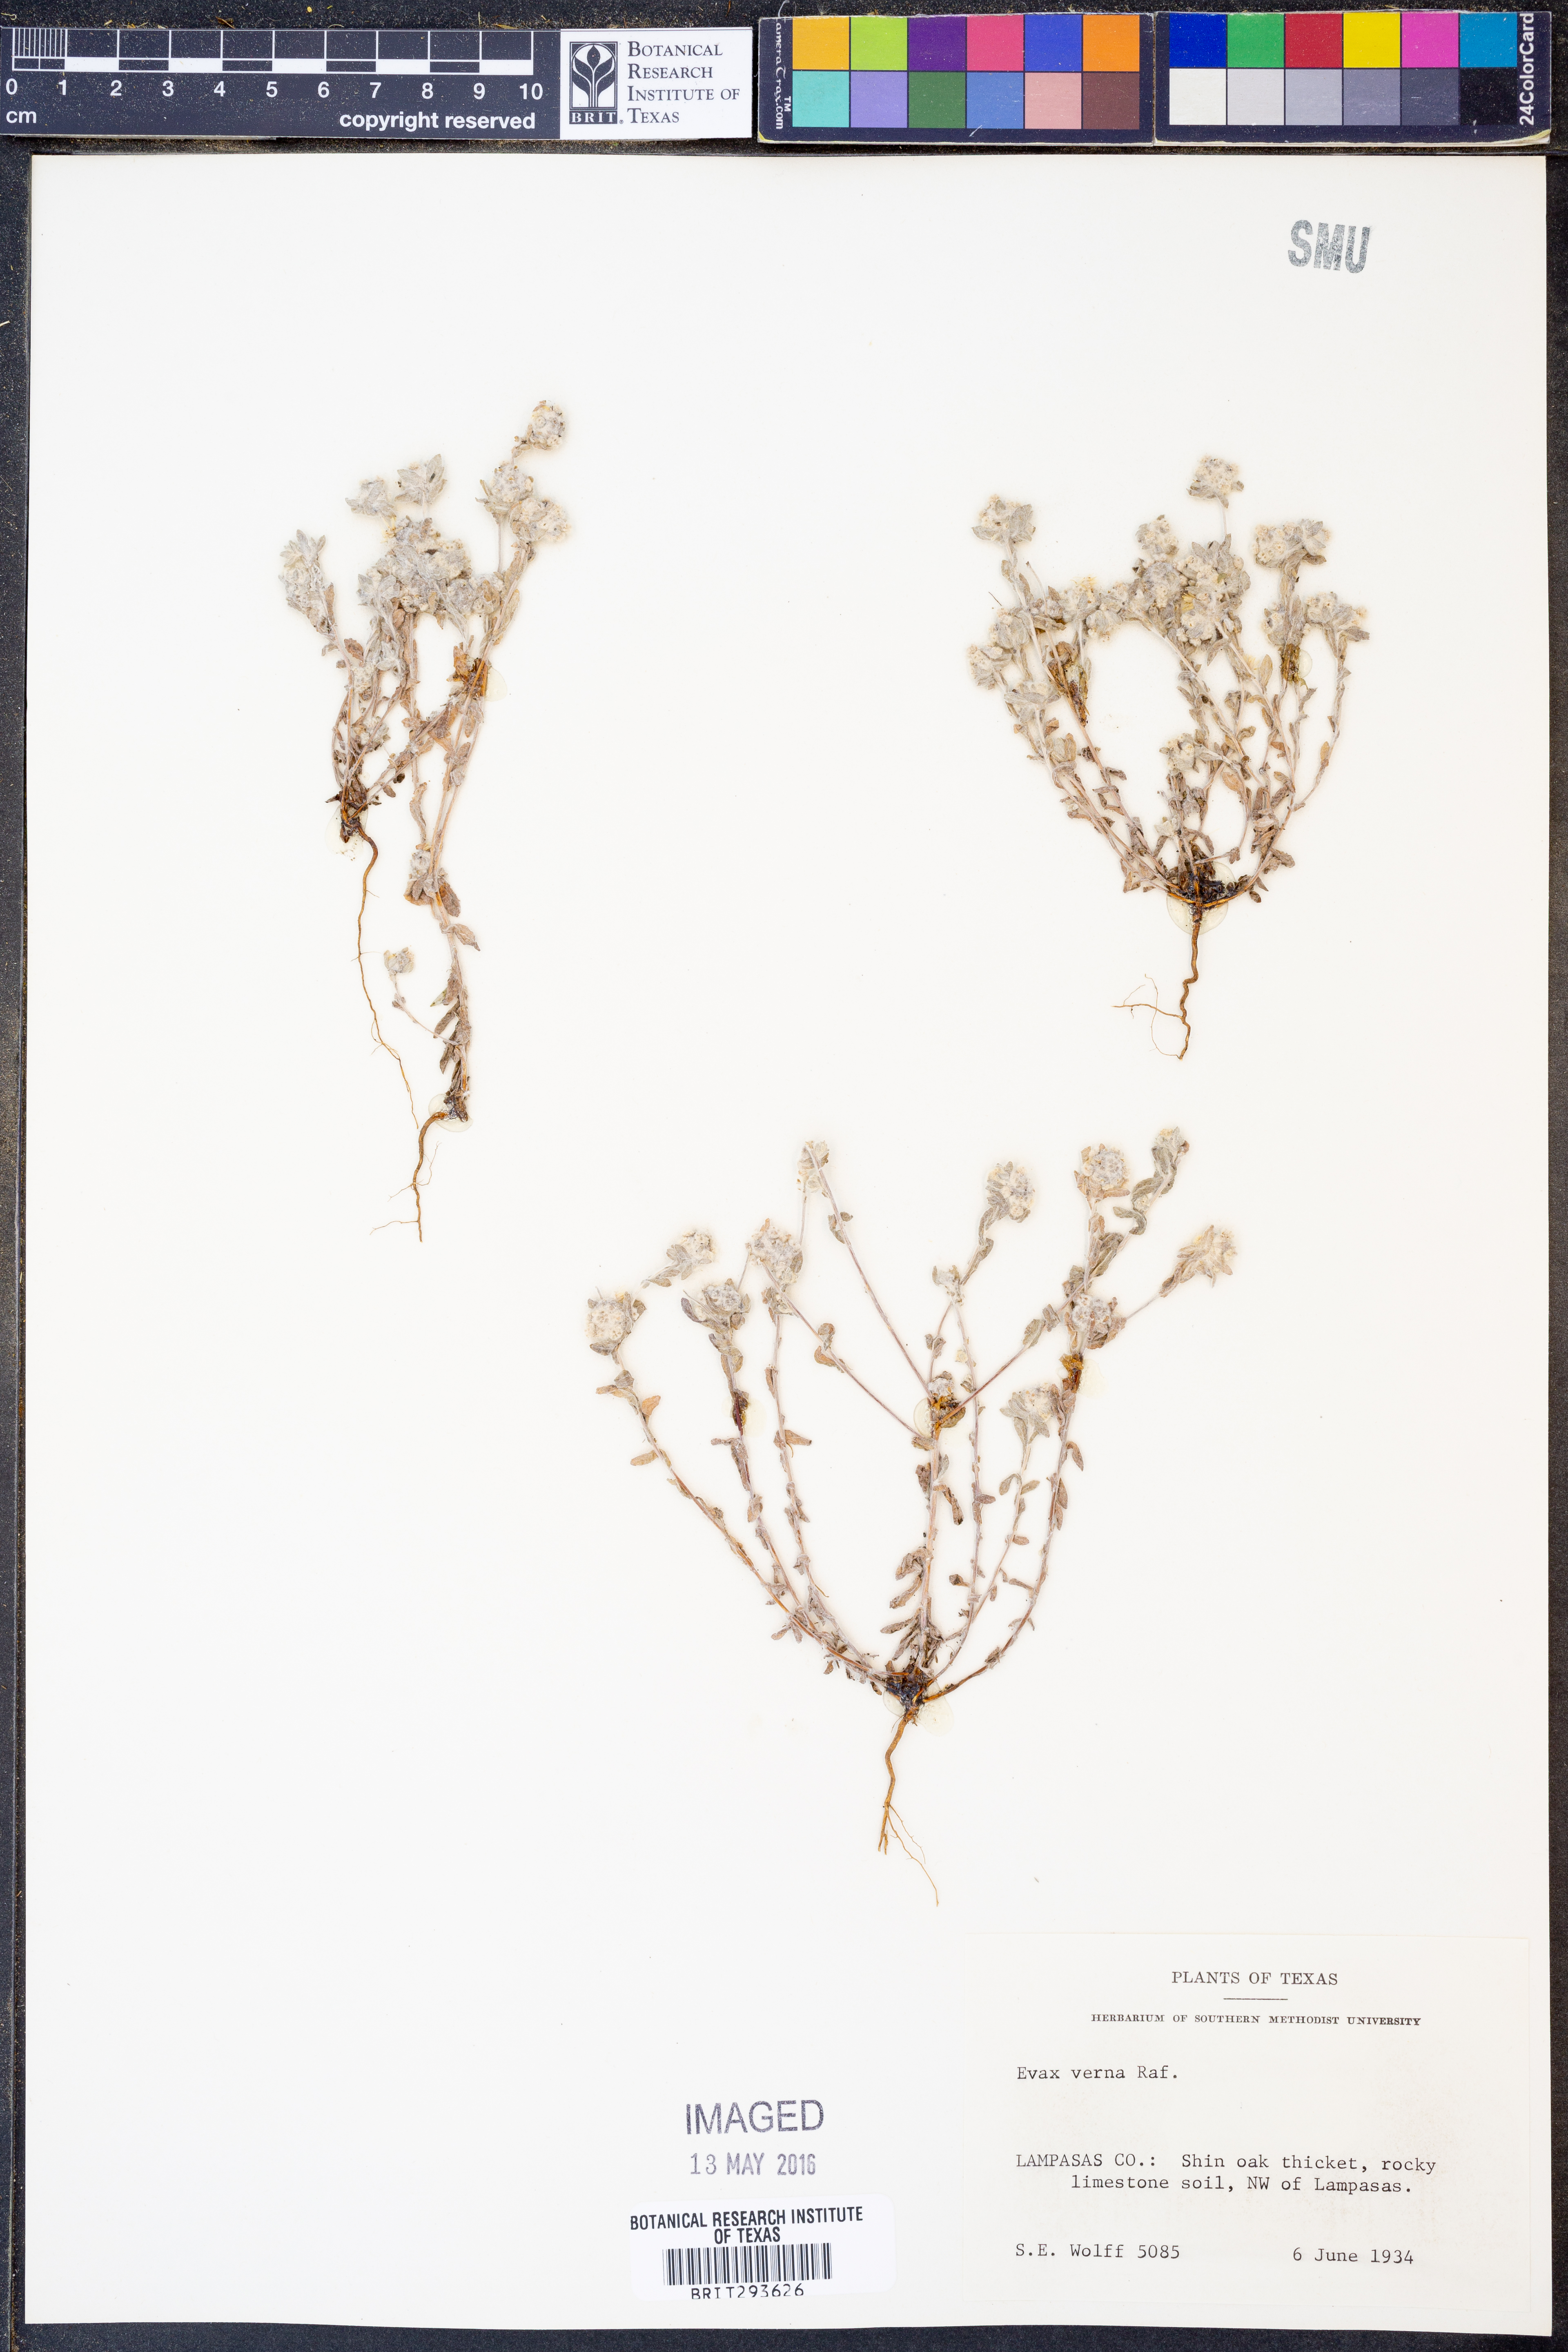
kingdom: Plantae
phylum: Tracheophyta
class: Magnoliopsida
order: Asterales
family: Asteraceae
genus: Diaperia
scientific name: Diaperia verna
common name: Many-stem rabbit-tobacco
